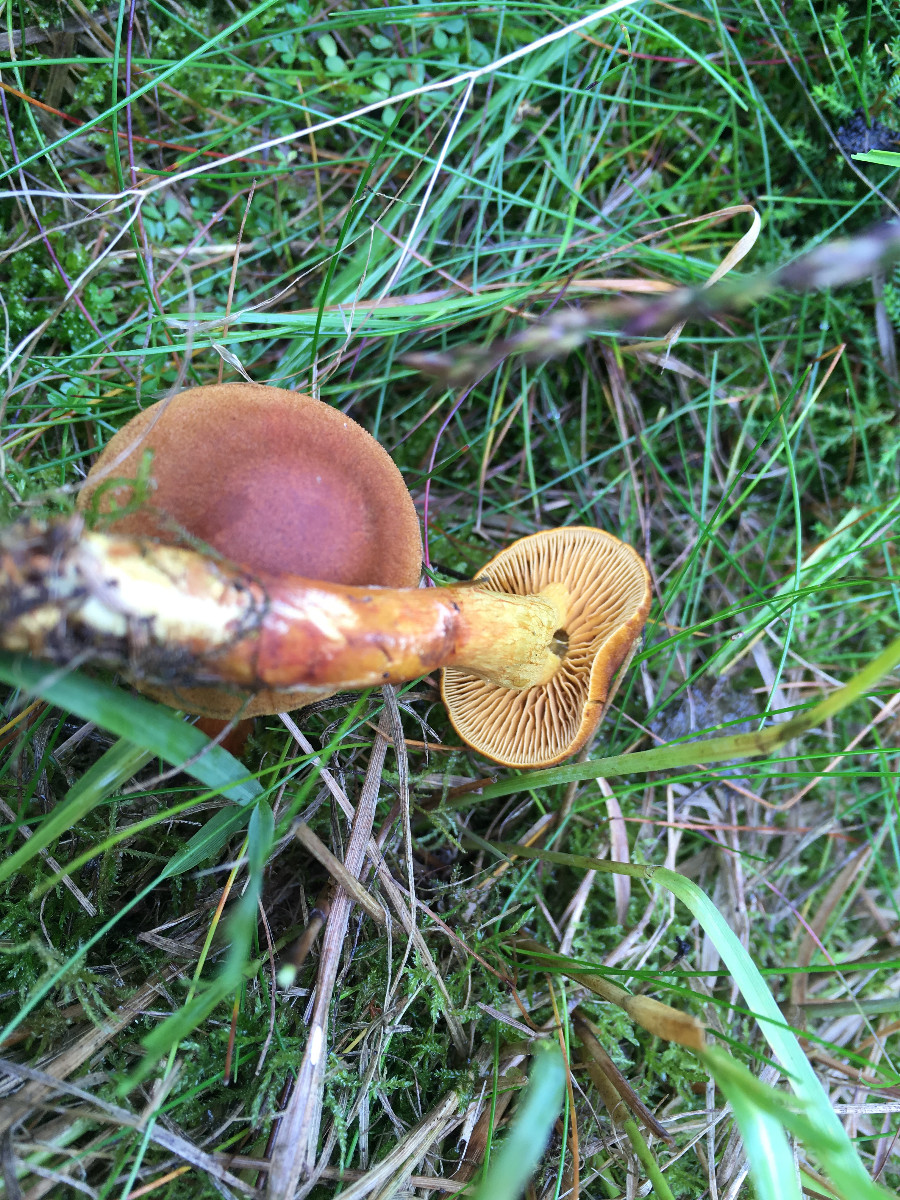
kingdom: Fungi
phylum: Basidiomycota
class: Agaricomycetes
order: Agaricales
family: Cortinariaceae
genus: Cortinarius
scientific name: Cortinarius
